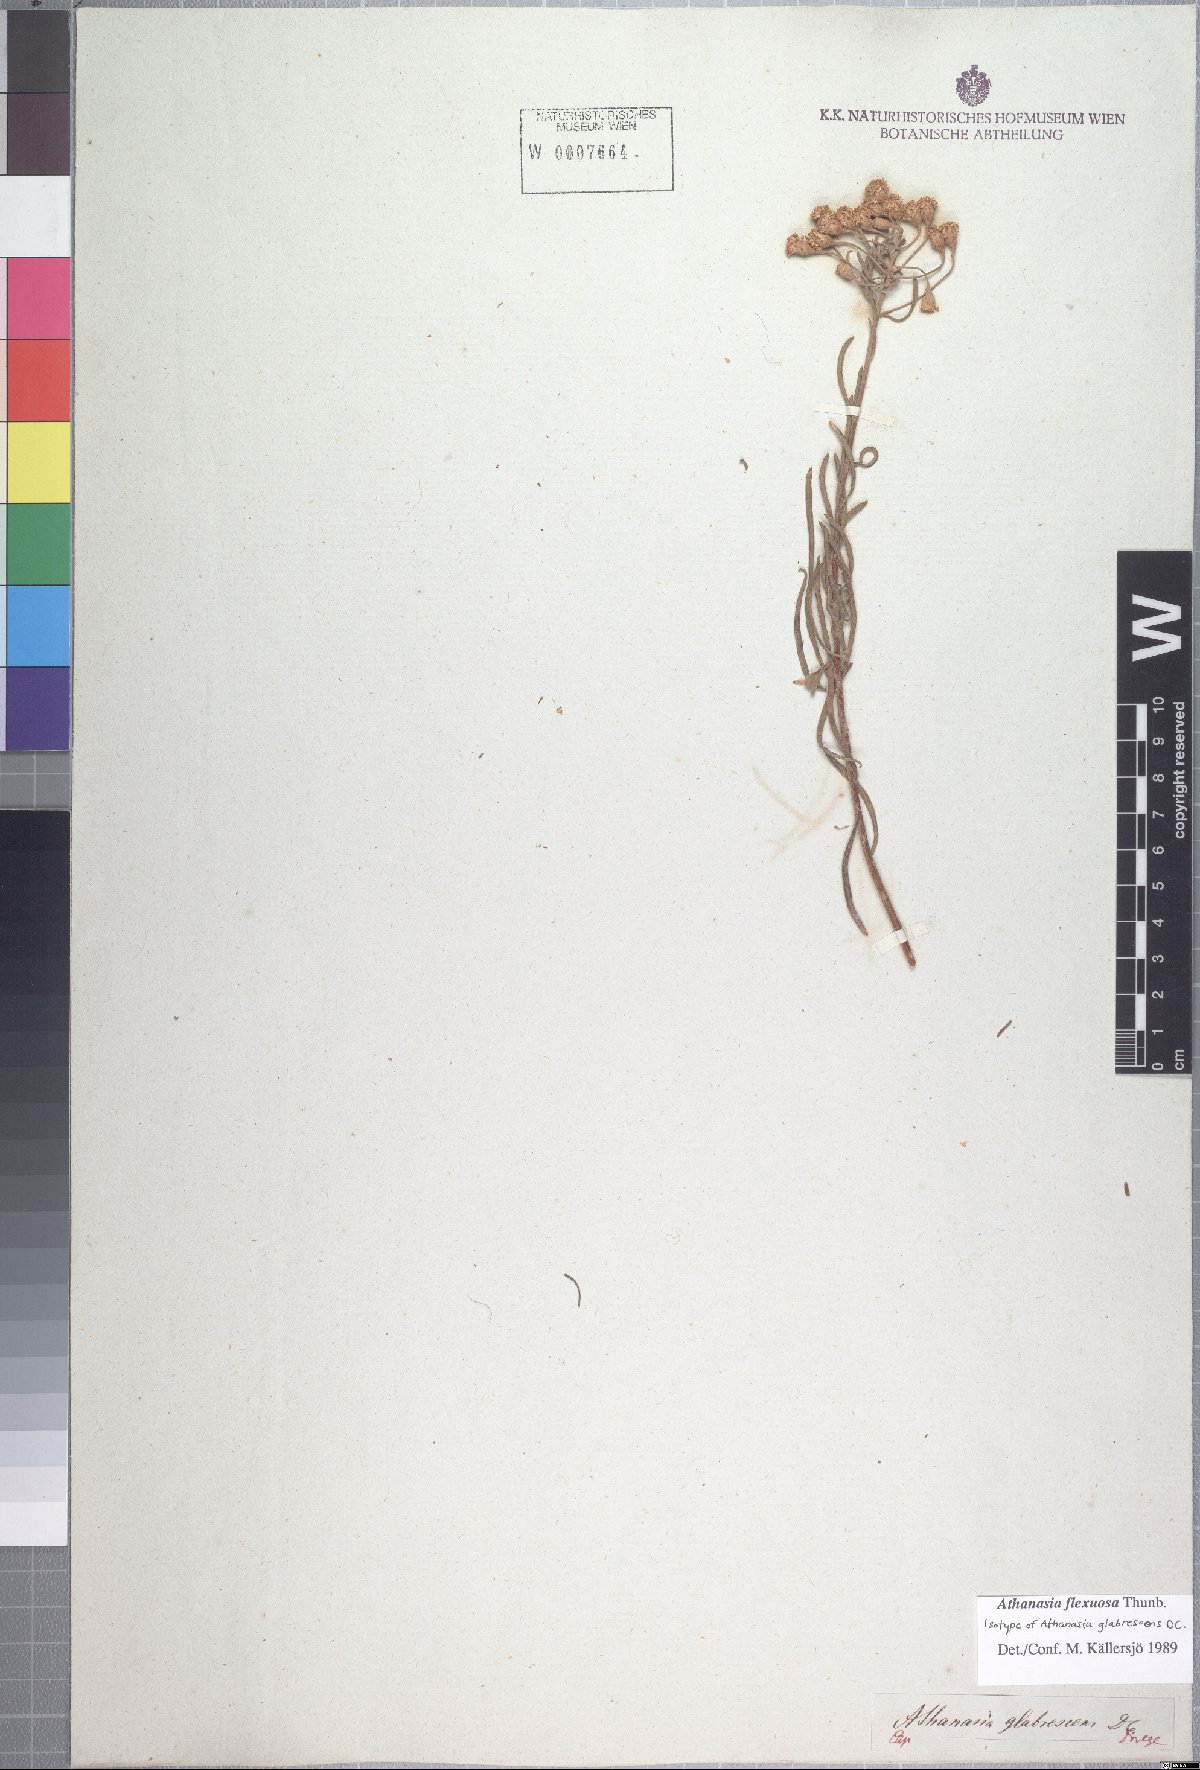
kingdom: Plantae
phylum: Tracheophyta
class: Magnoliopsida
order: Asterales
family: Asteraceae
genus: Athanasia
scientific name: Athanasia flexuosa
